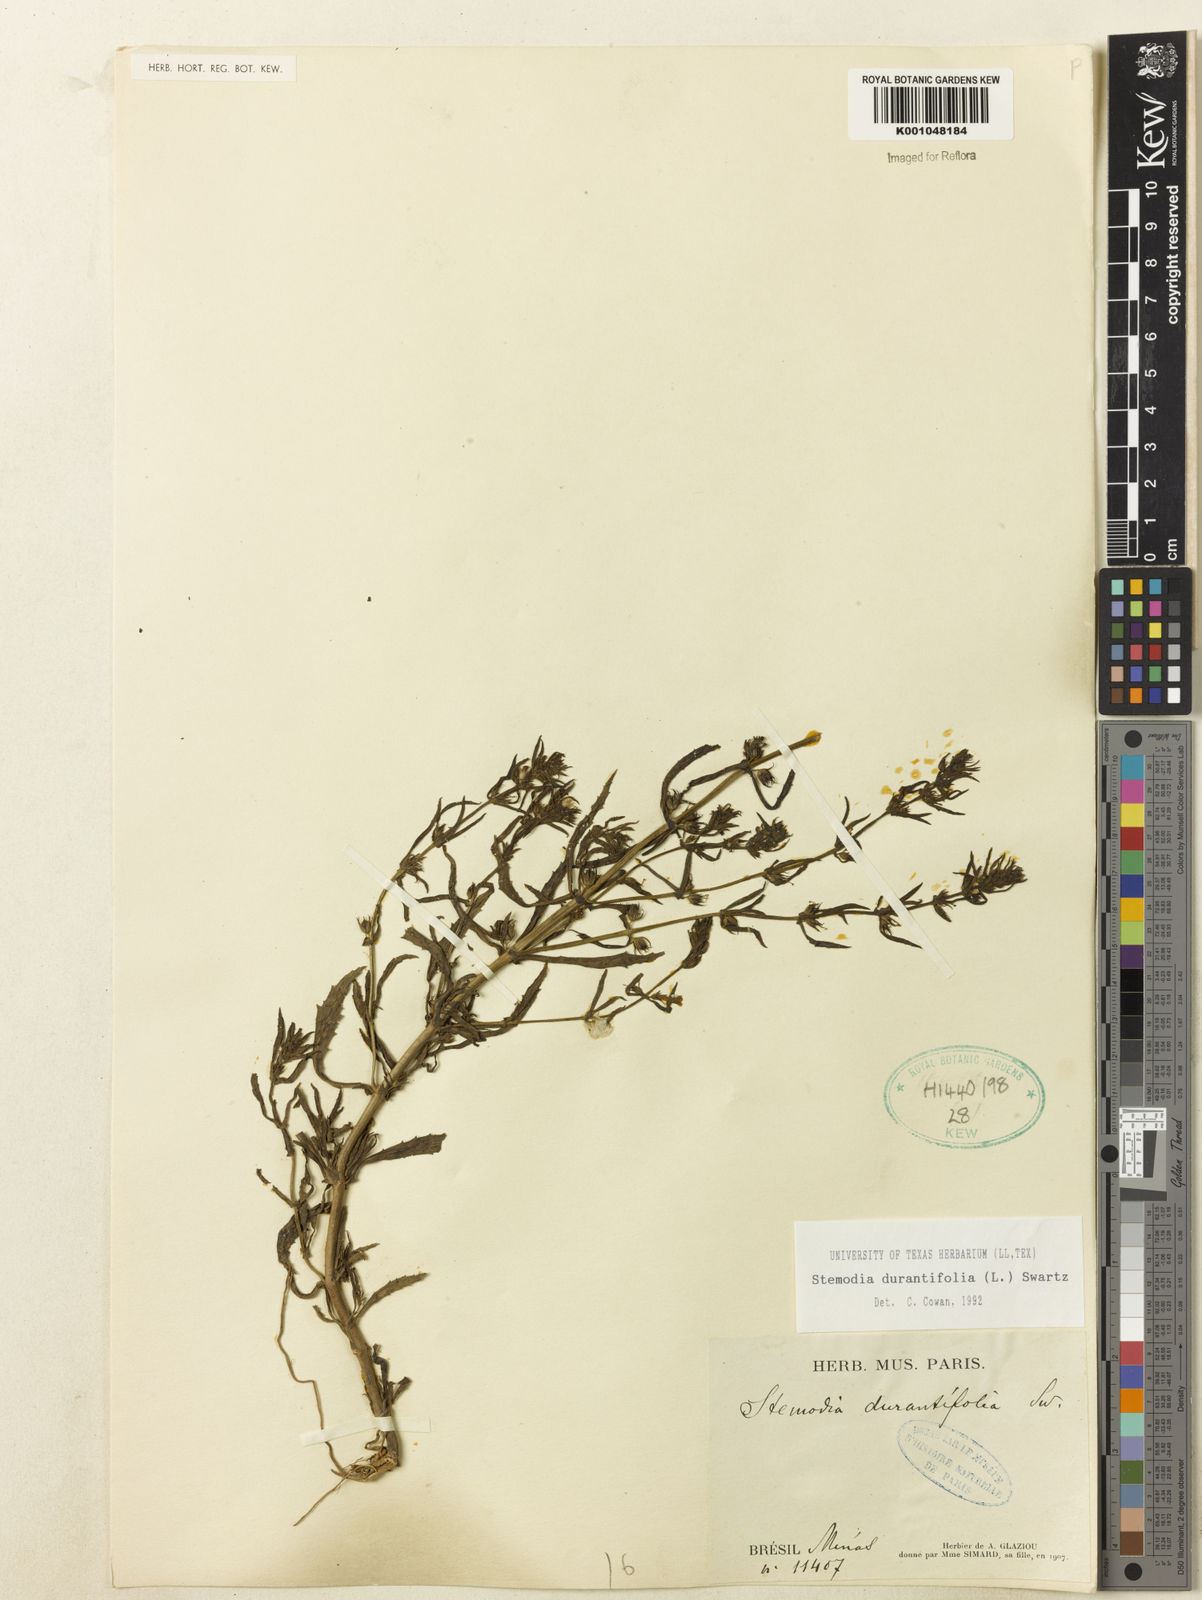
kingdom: Plantae
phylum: Tracheophyta
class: Magnoliopsida
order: Lamiales
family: Plantaginaceae
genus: Stemodia
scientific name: Stemodia durantifolia
